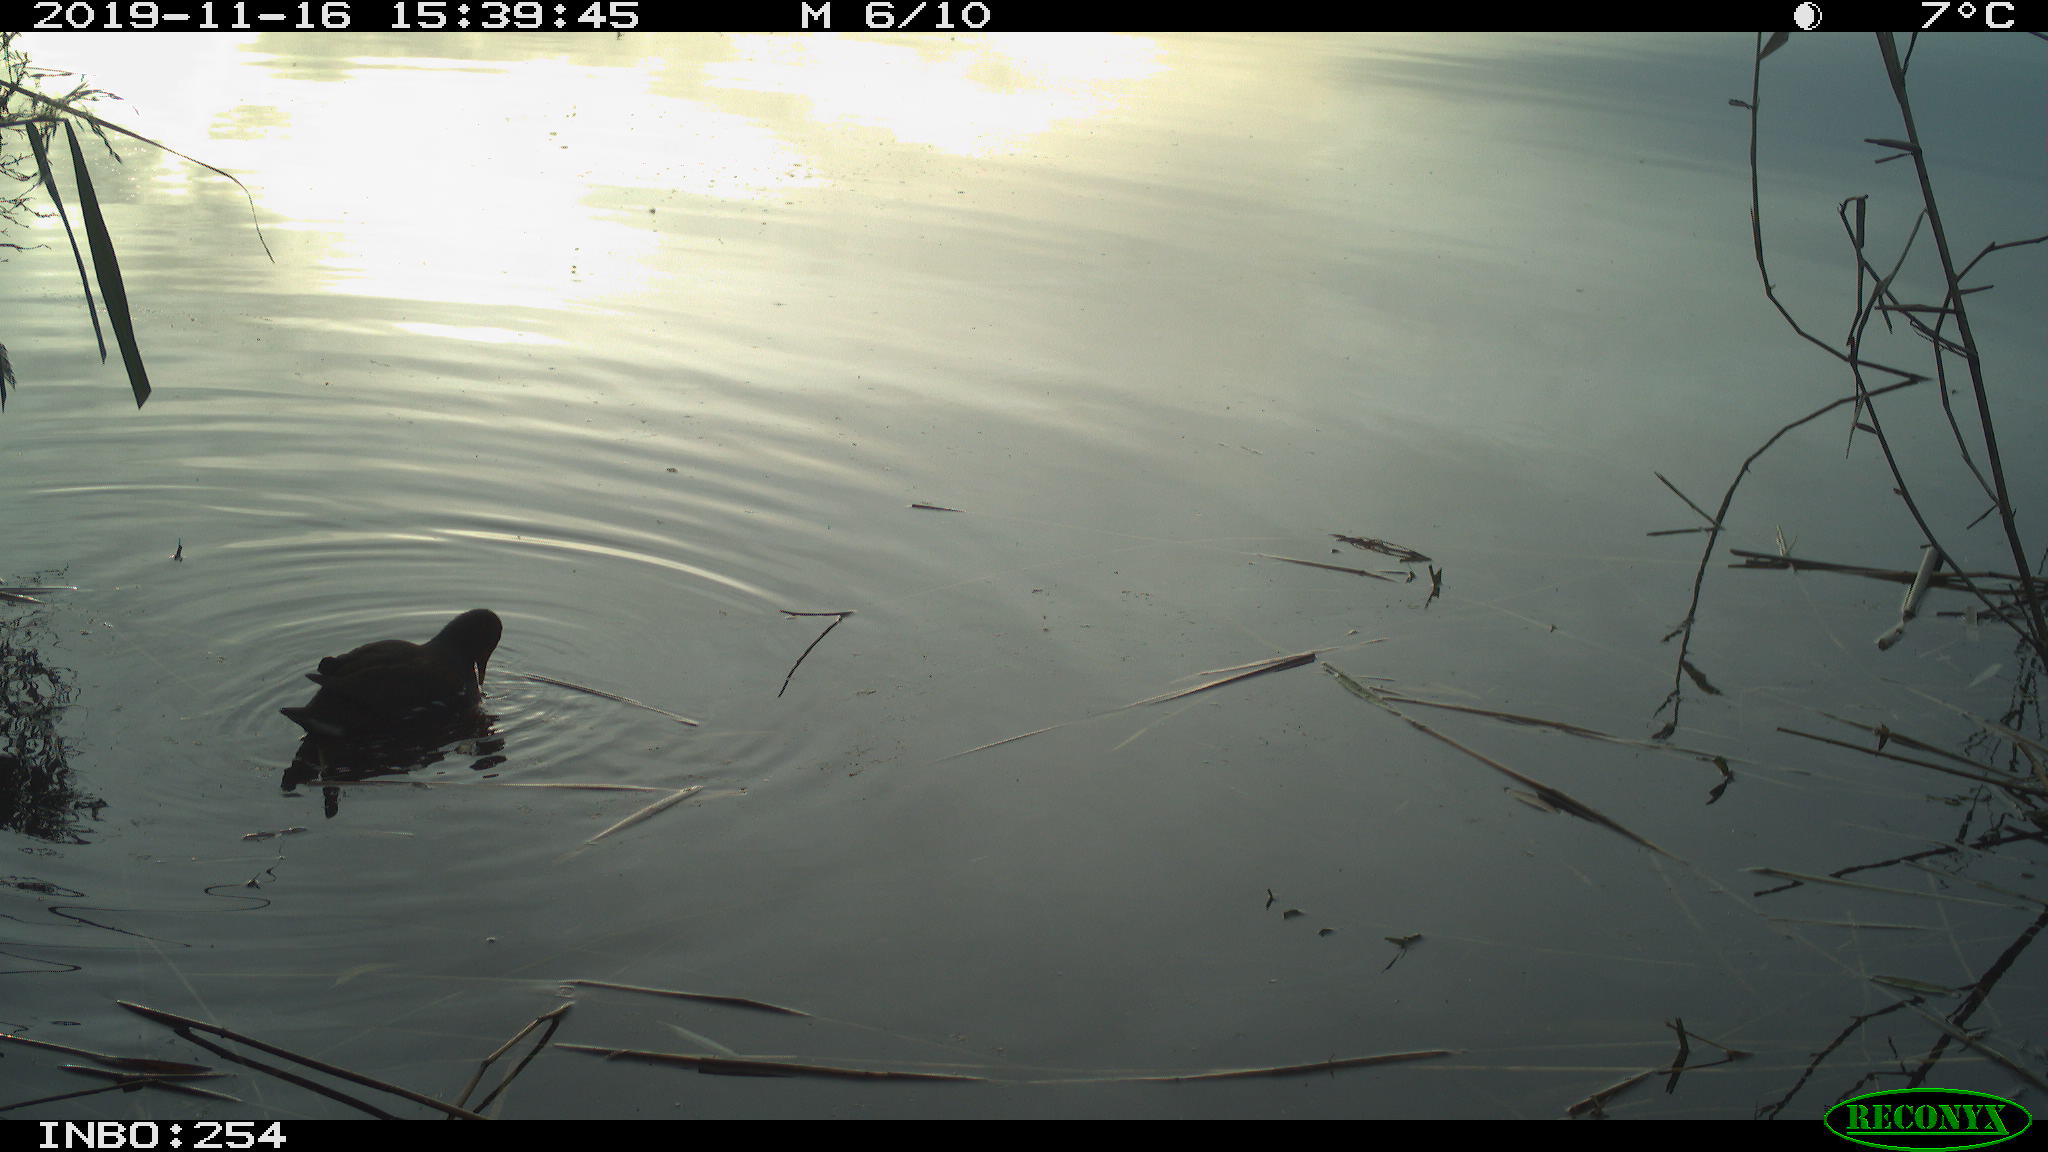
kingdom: Animalia
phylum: Chordata
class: Aves
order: Gruiformes
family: Rallidae
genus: Gallinula
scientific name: Gallinula chloropus
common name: Common moorhen
